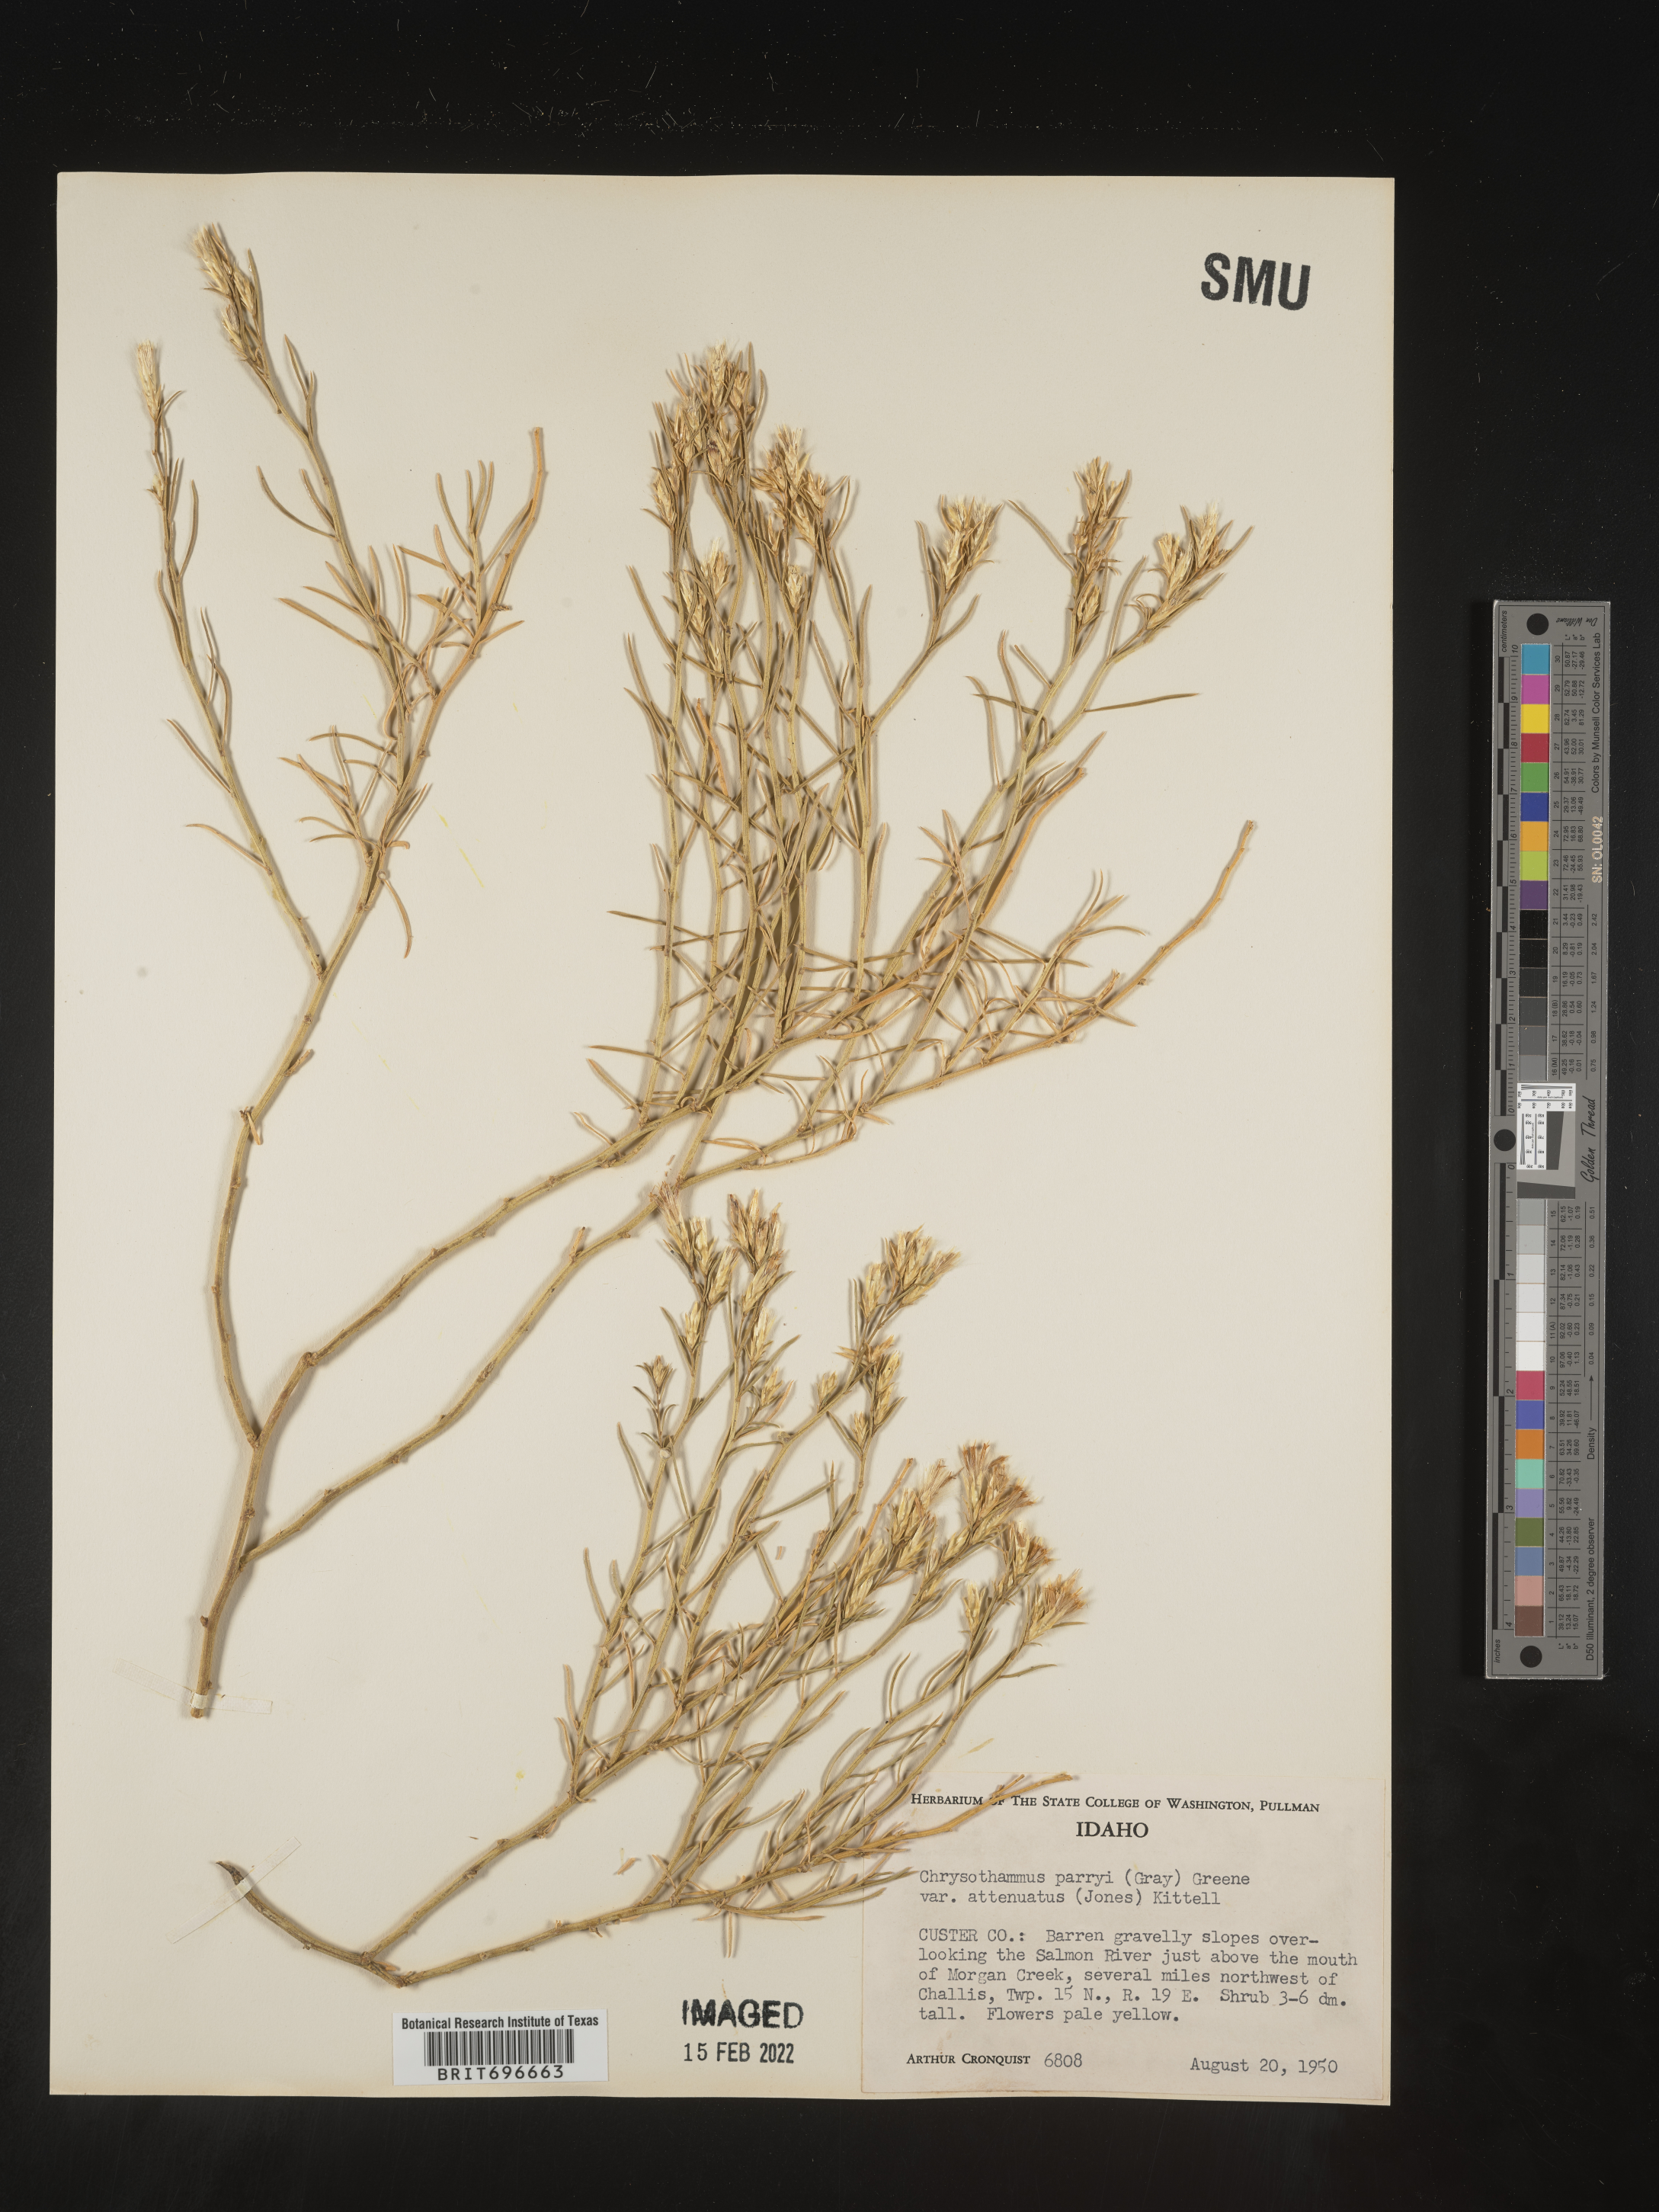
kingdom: Plantae
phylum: Tracheophyta
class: Magnoliopsida
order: Asterales
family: Asteraceae
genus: Ericameria
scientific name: Ericameria parryi
